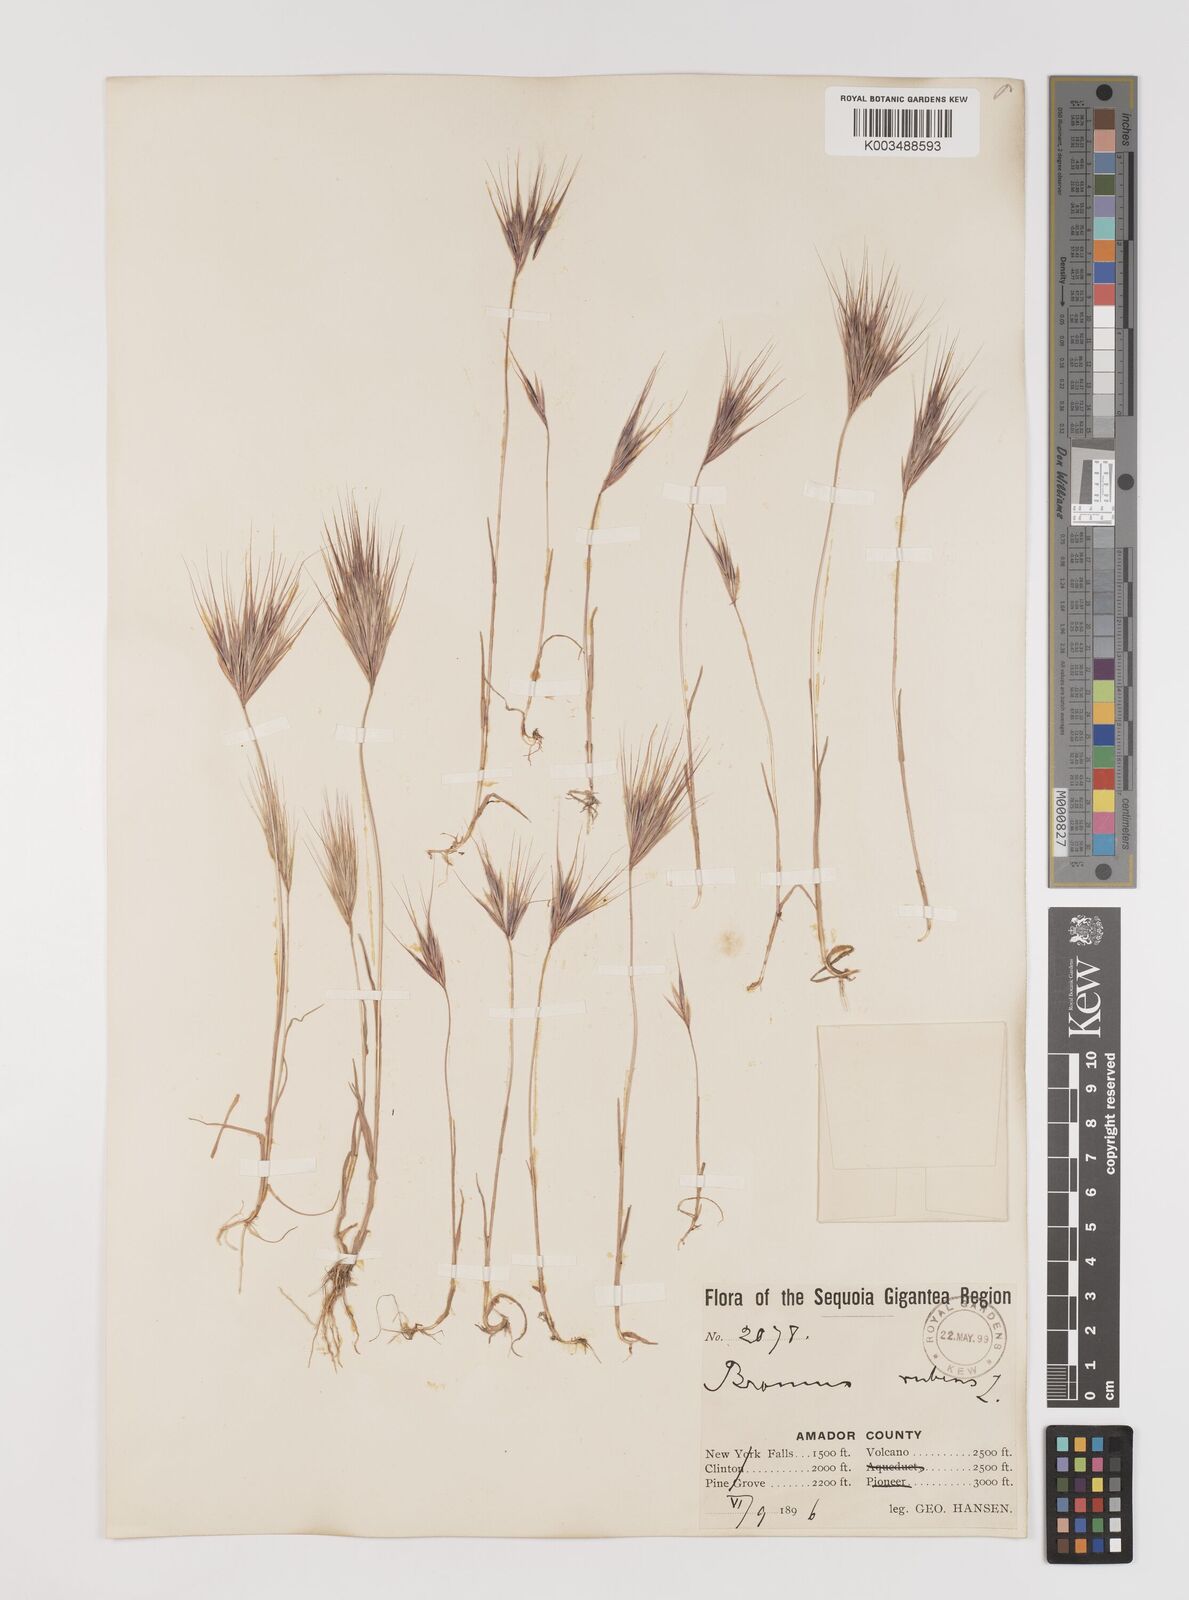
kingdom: Plantae
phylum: Tracheophyta
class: Liliopsida
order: Poales
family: Poaceae
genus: Bromus
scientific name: Bromus rubens
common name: Red brome
